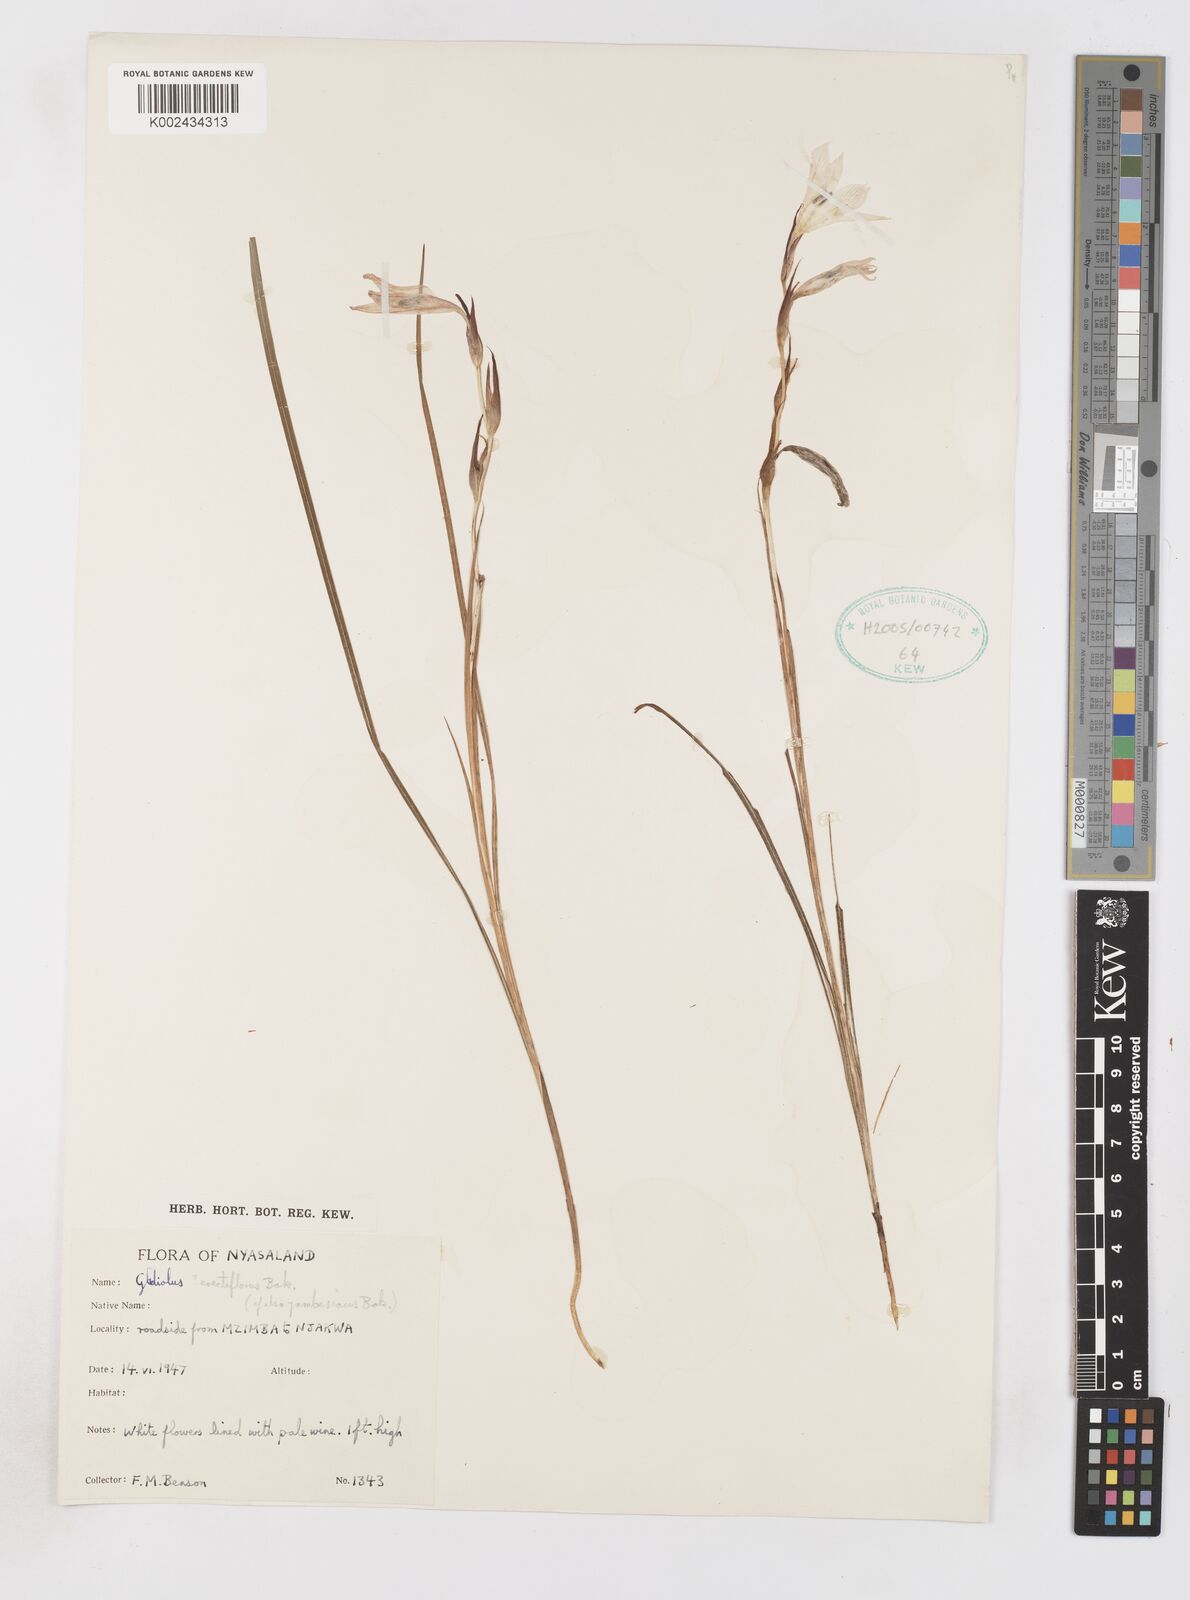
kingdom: Plantae
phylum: Tracheophyta
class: Liliopsida
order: Asparagales
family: Iridaceae
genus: Gladiolus
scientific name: Gladiolus erectiflorus
